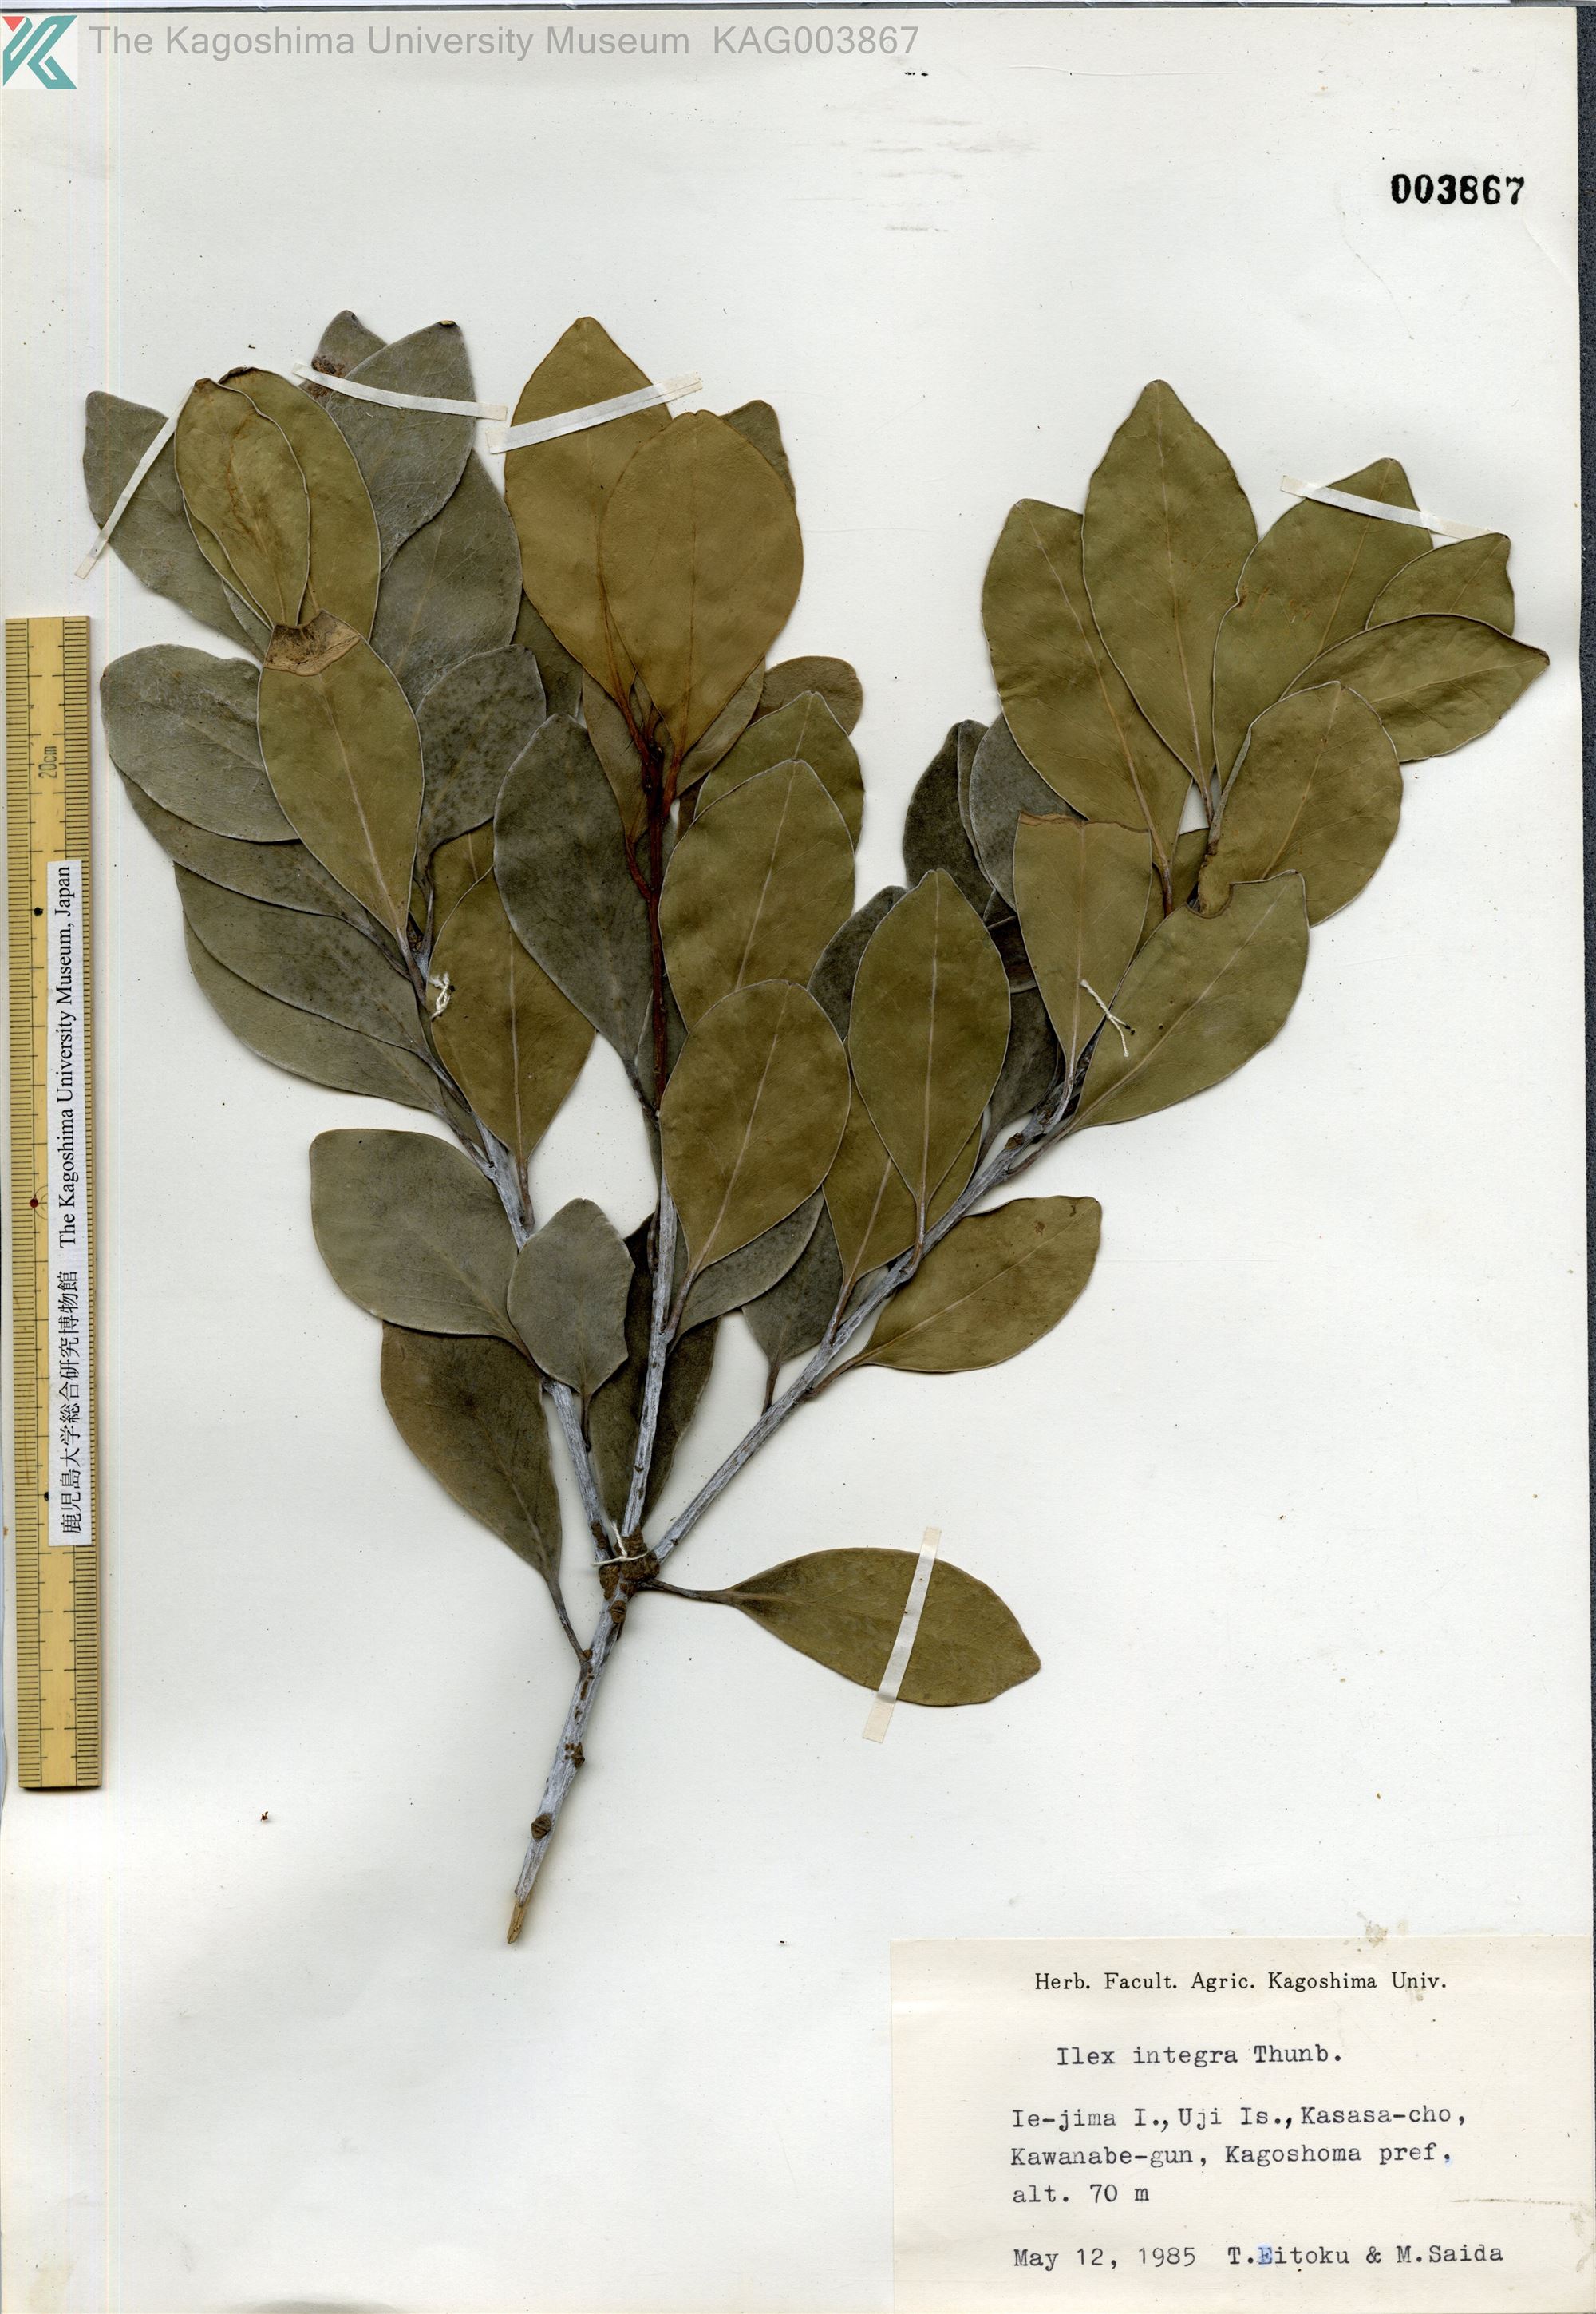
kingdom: Plantae
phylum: Tracheophyta
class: Magnoliopsida
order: Aquifoliales
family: Aquifoliaceae
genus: Ilex
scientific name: Ilex integra
